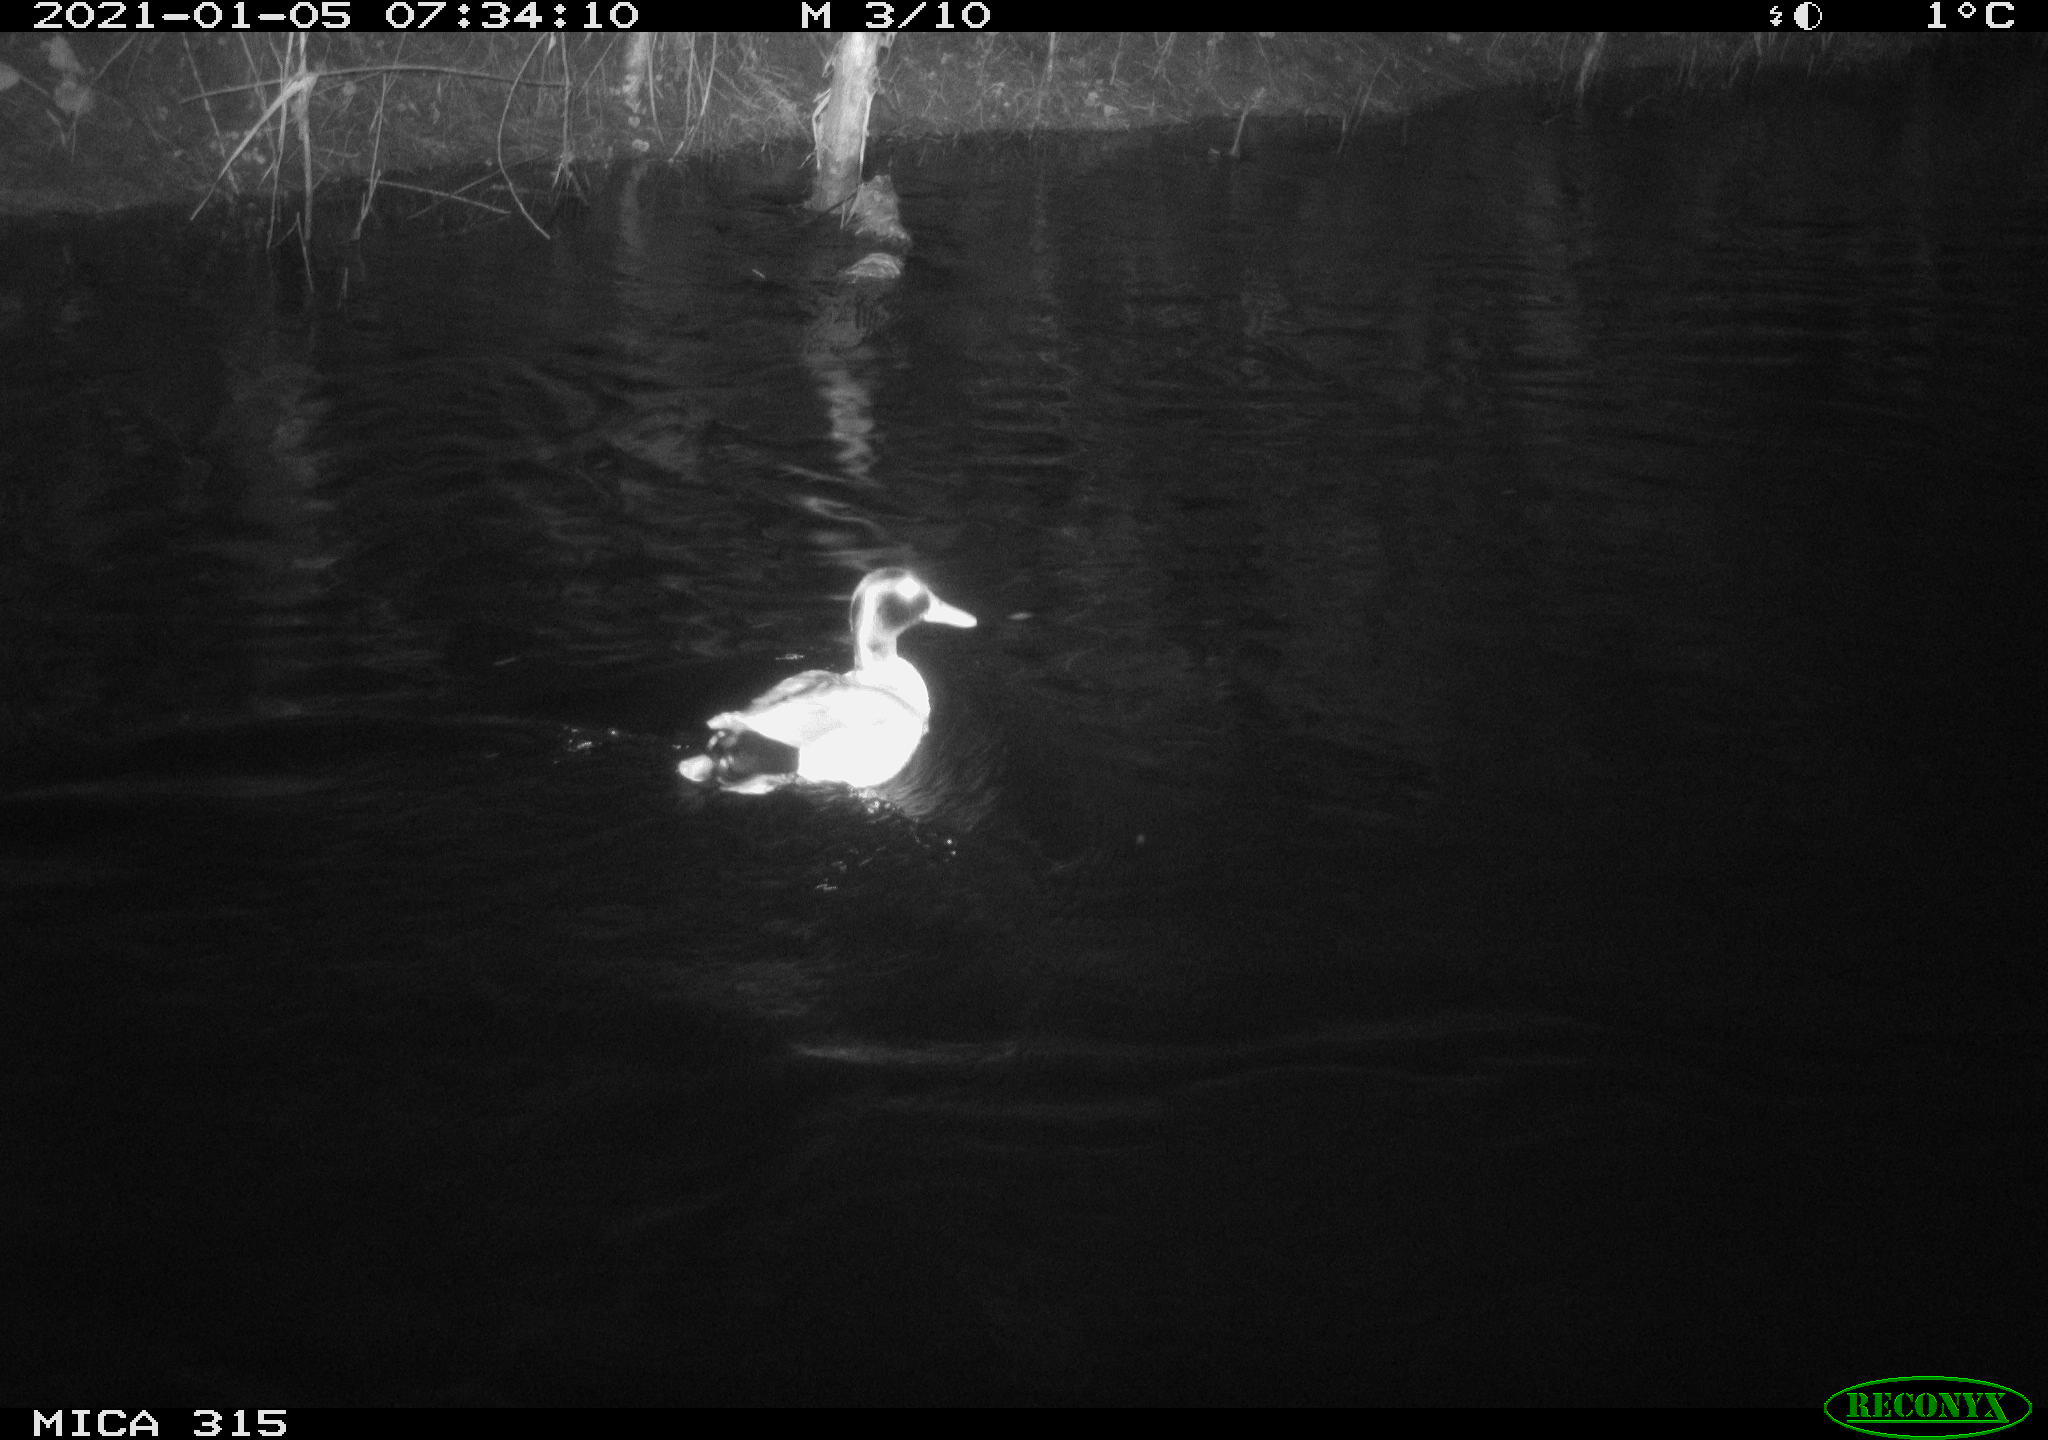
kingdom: Animalia
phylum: Chordata
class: Aves
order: Anseriformes
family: Anatidae
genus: Anas
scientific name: Anas platyrhynchos
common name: Mallard
